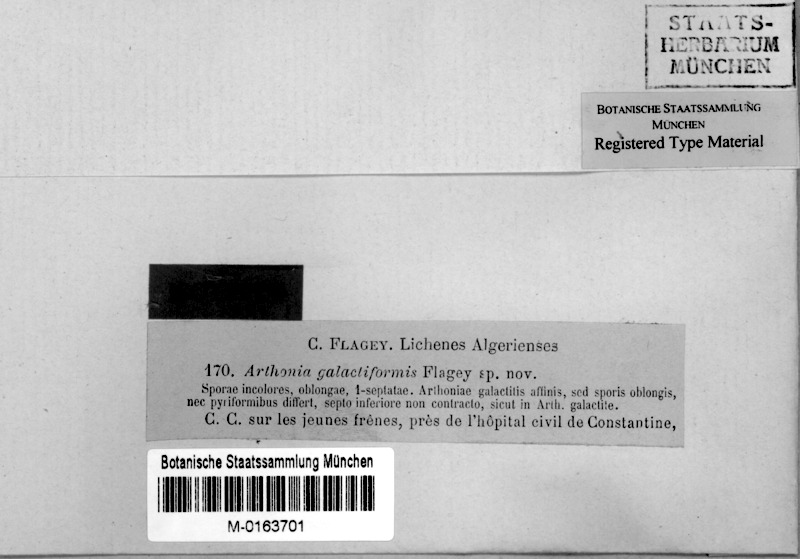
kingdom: Fungi
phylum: Ascomycota
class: Arthoniomycetes
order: Arthoniales
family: Arthoniaceae
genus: Arthonia
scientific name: Arthonia
